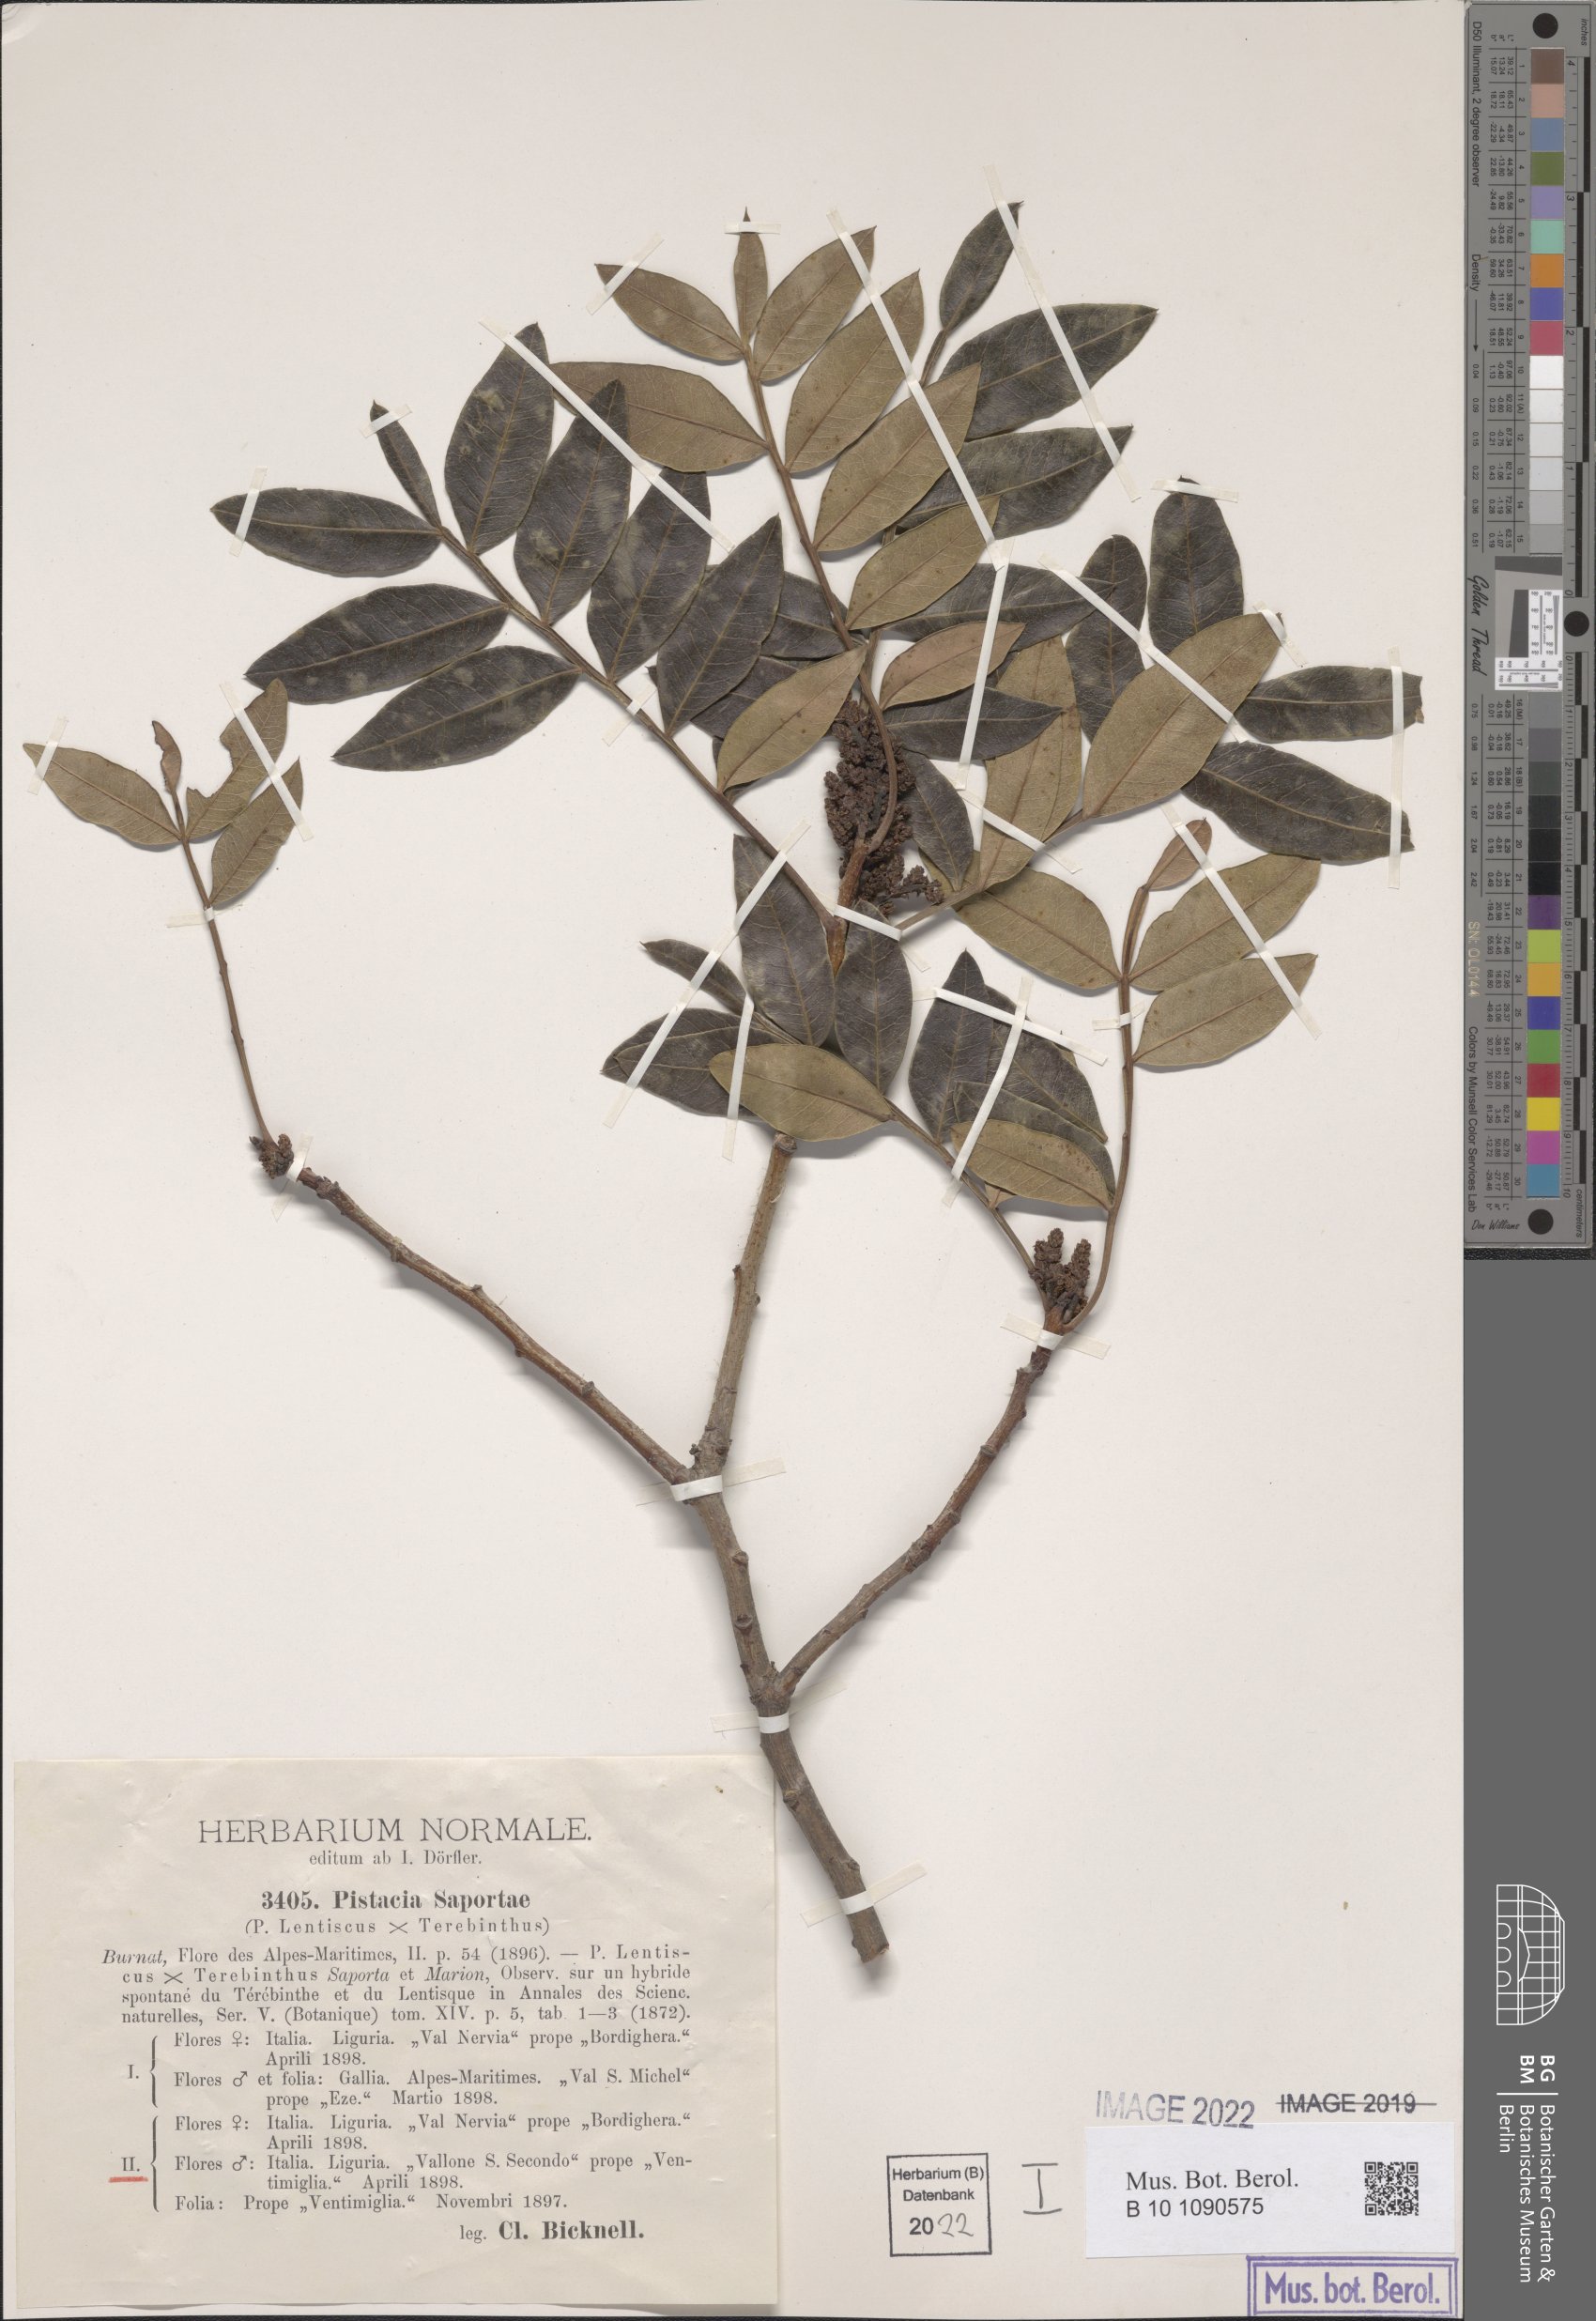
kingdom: Plantae
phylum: Tracheophyta
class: Magnoliopsida
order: Sapindales
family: Anacardiaceae
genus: Pistacia
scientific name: Pistacia saportae
